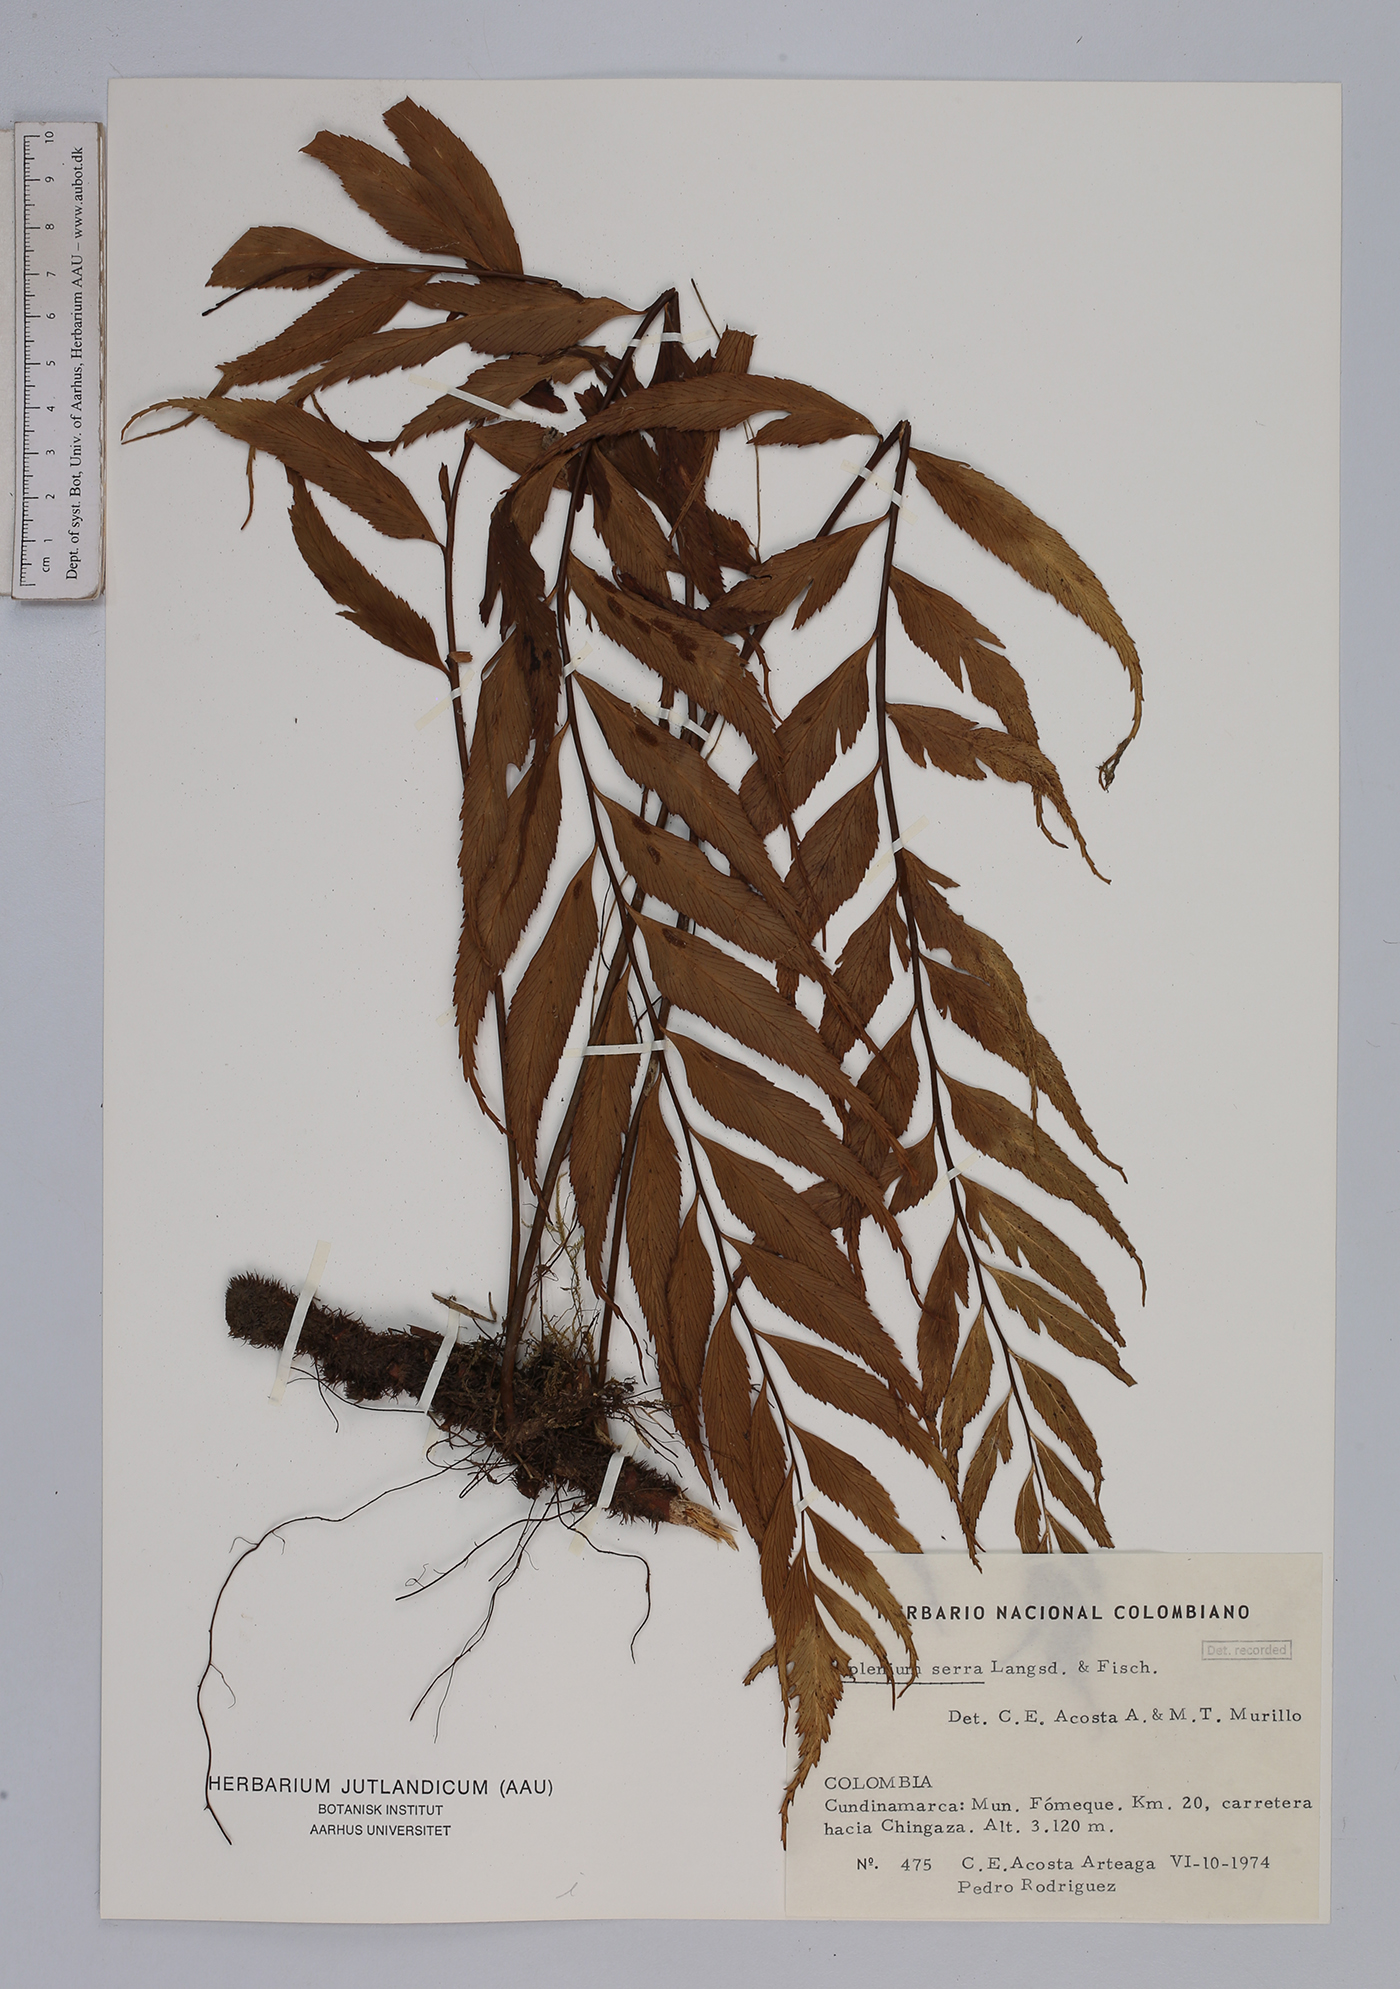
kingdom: Plantae
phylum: Tracheophyta
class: Polypodiopsida
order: Polypodiales
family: Aspleniaceae
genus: Asplenium
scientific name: Asplenium serra
